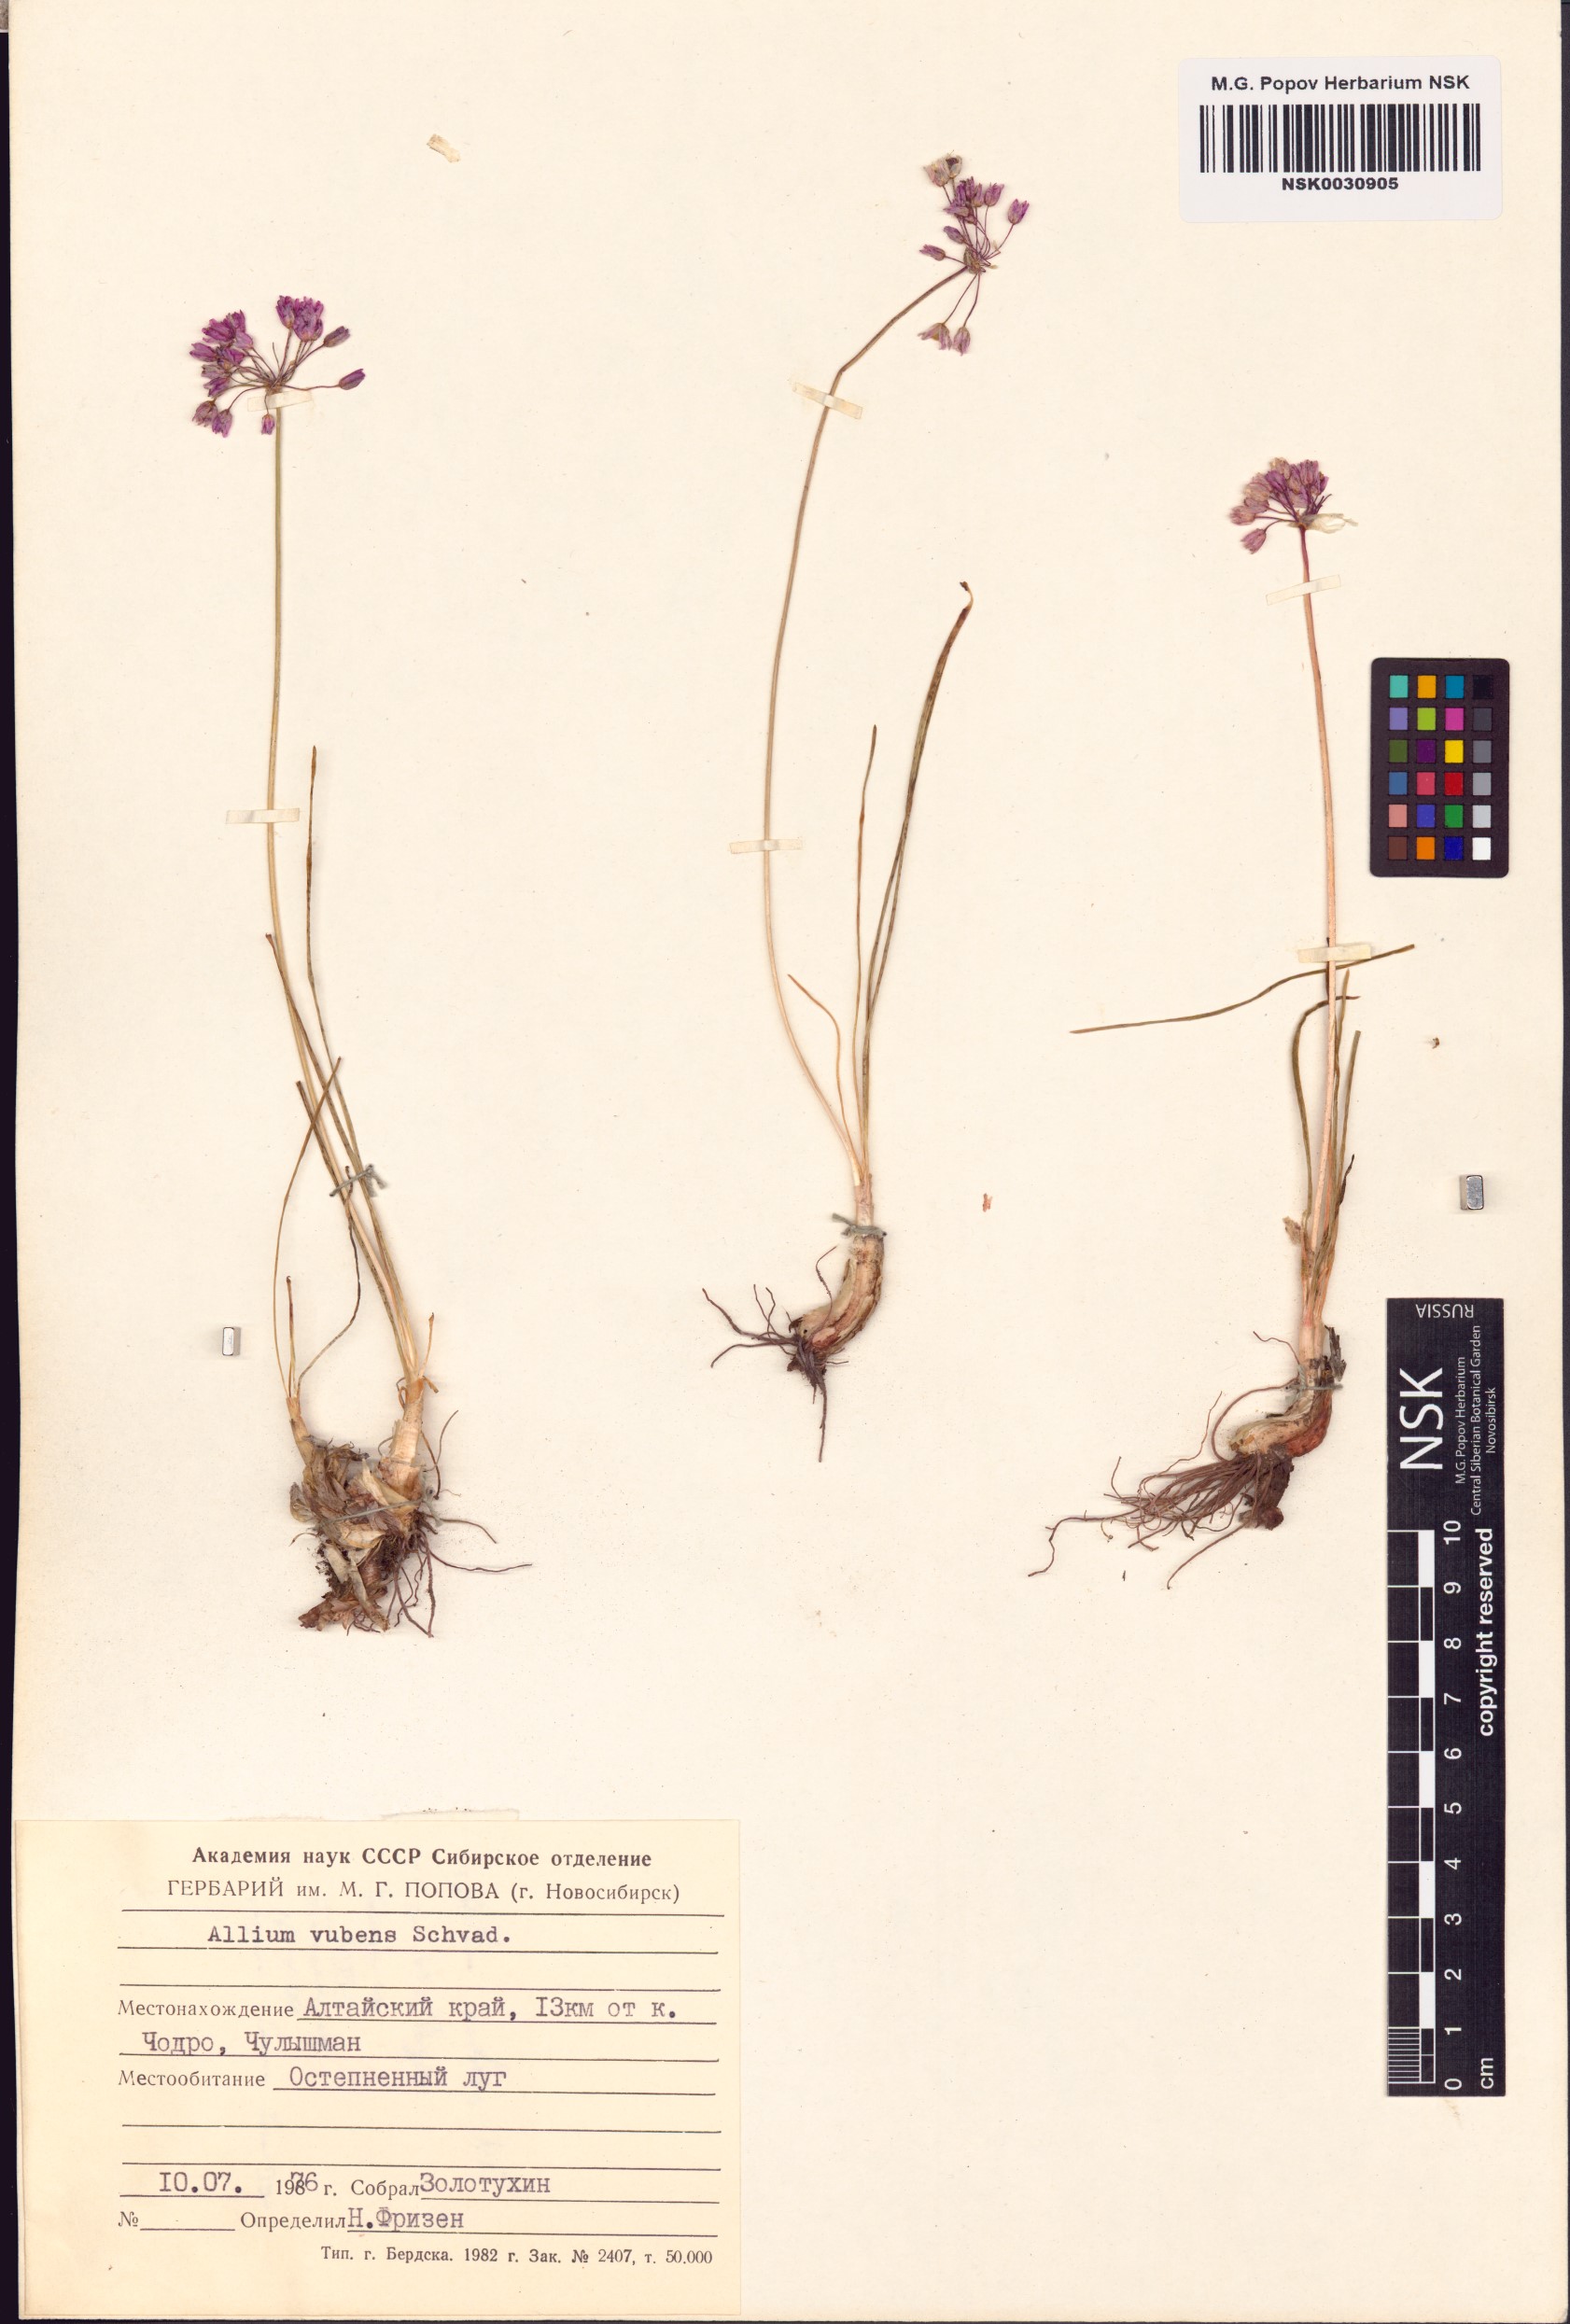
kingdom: Plantae
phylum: Tracheophyta
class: Liliopsida
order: Asparagales
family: Amaryllidaceae
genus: Allium
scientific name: Allium rubens
